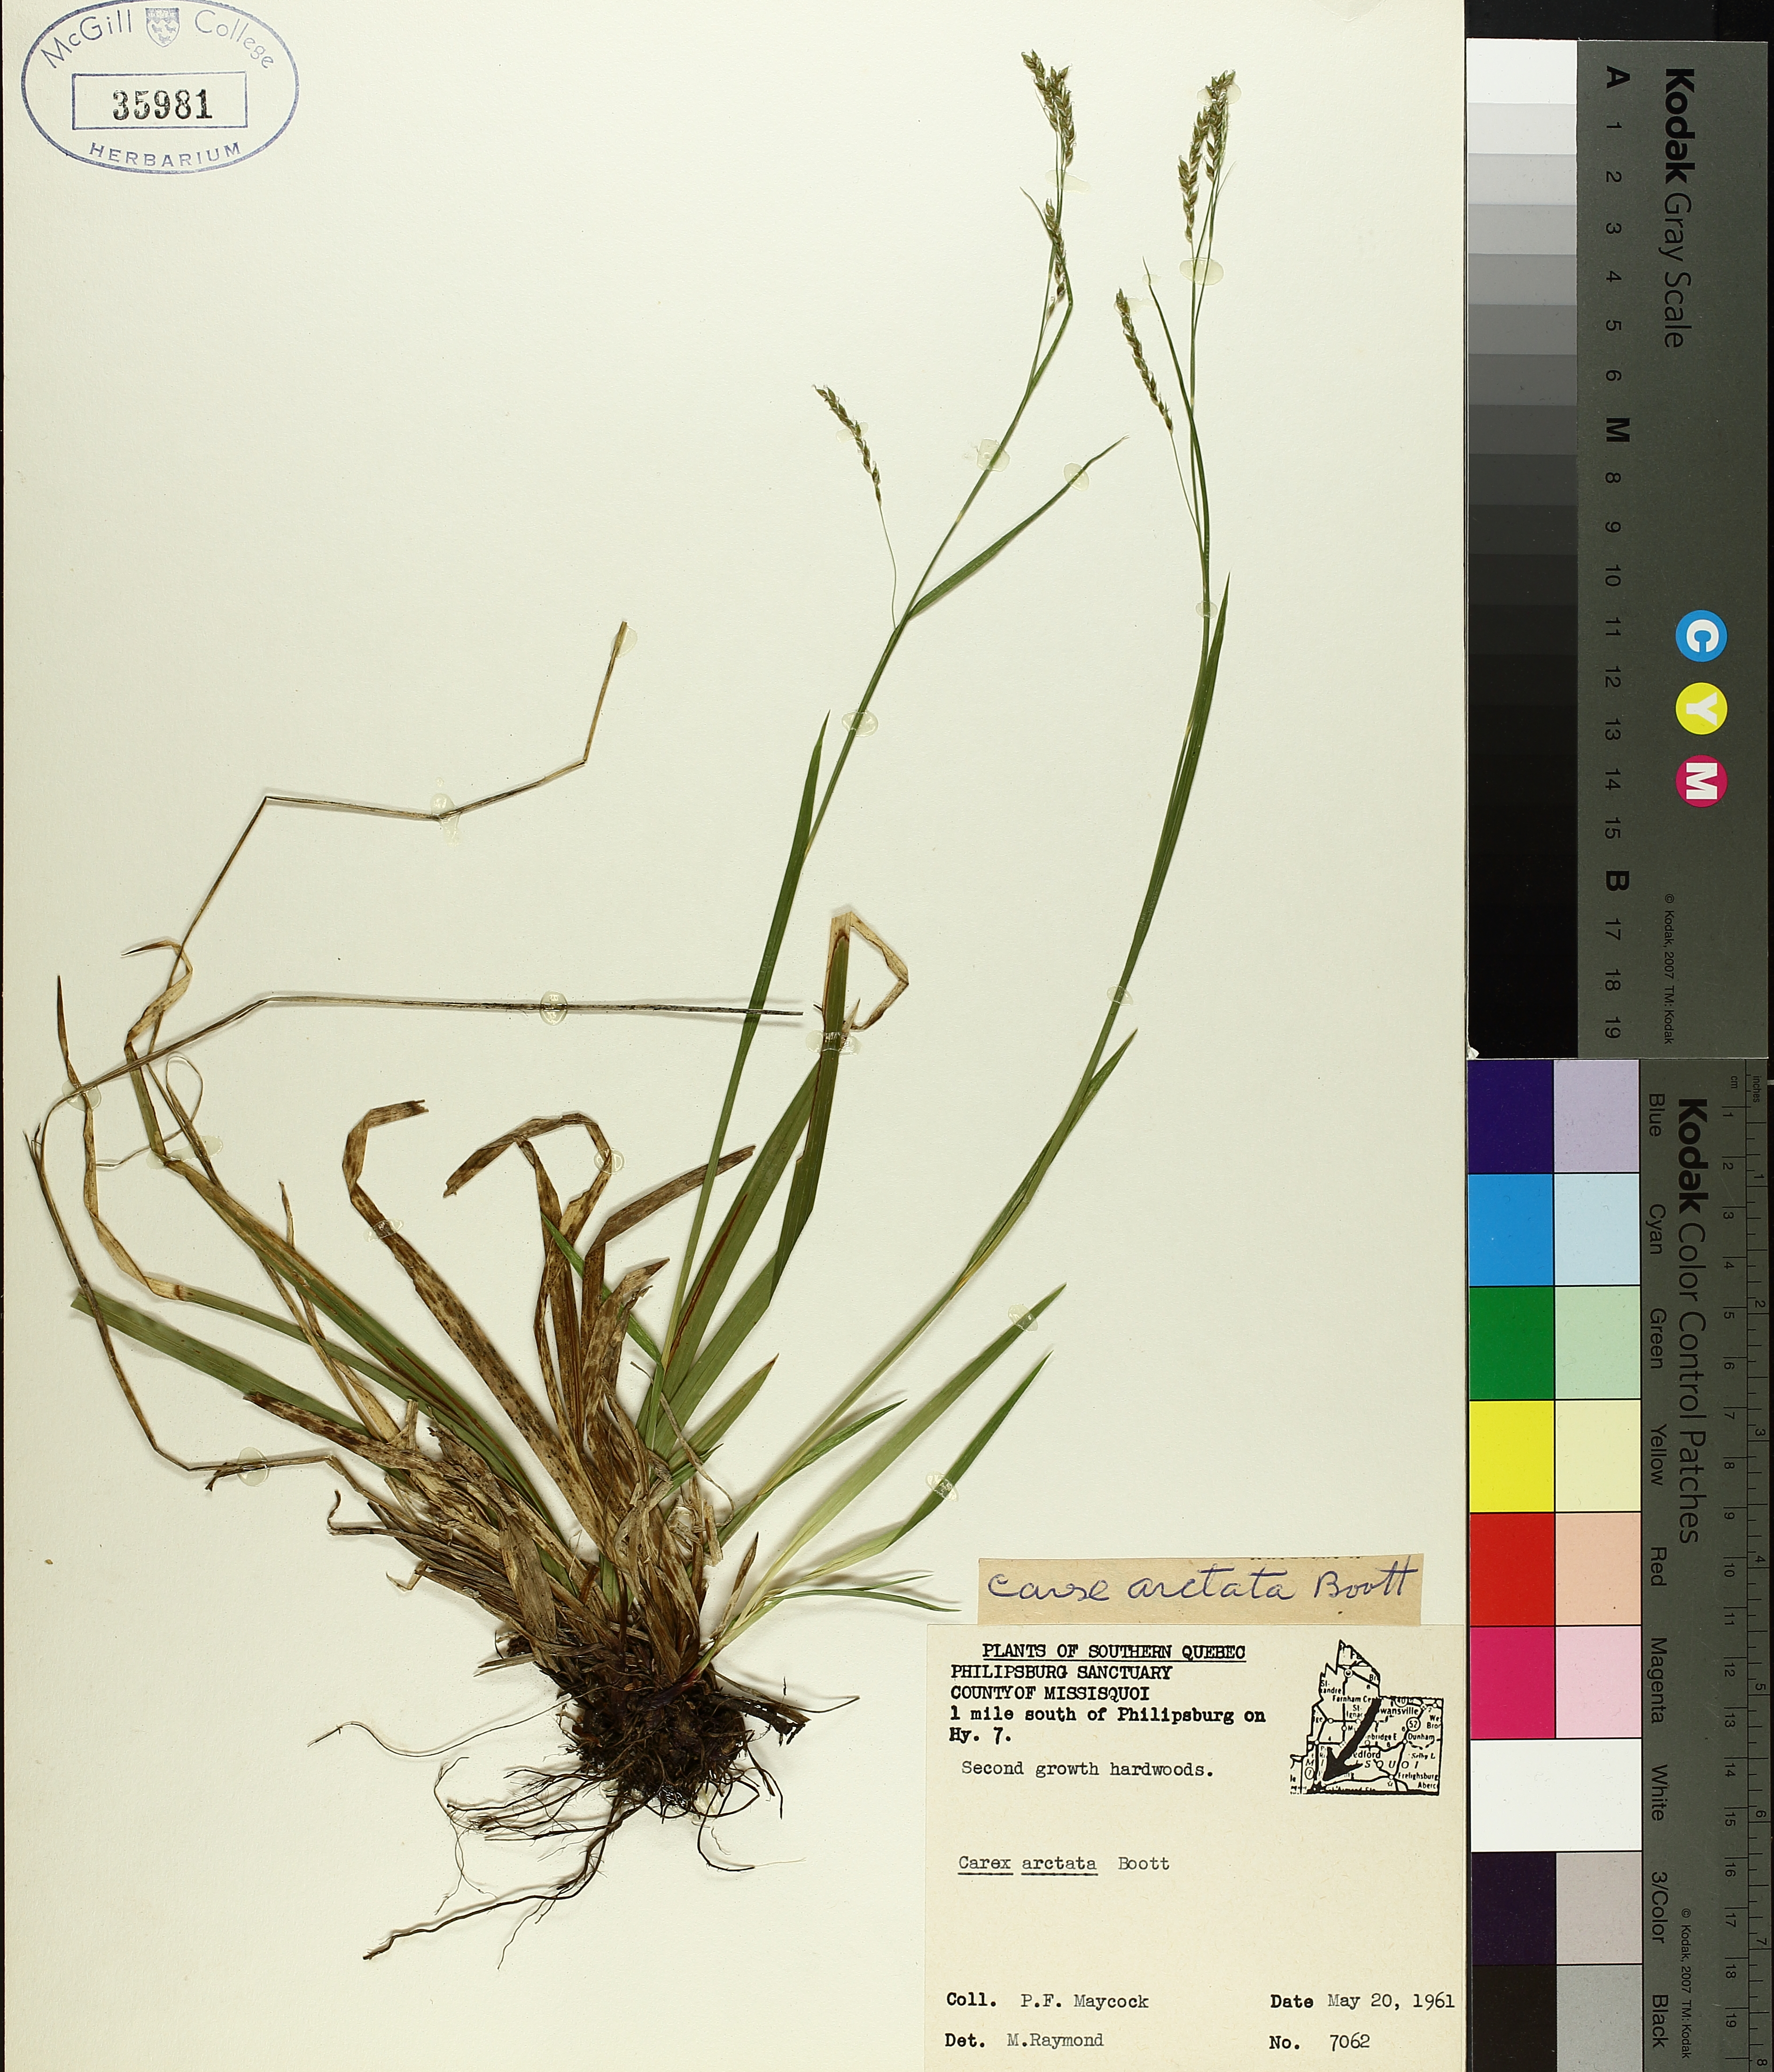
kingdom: Plantae
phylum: Tracheophyta
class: Liliopsida
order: Poales
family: Cyperaceae
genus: Carex
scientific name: Carex arctata
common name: Black sedge
